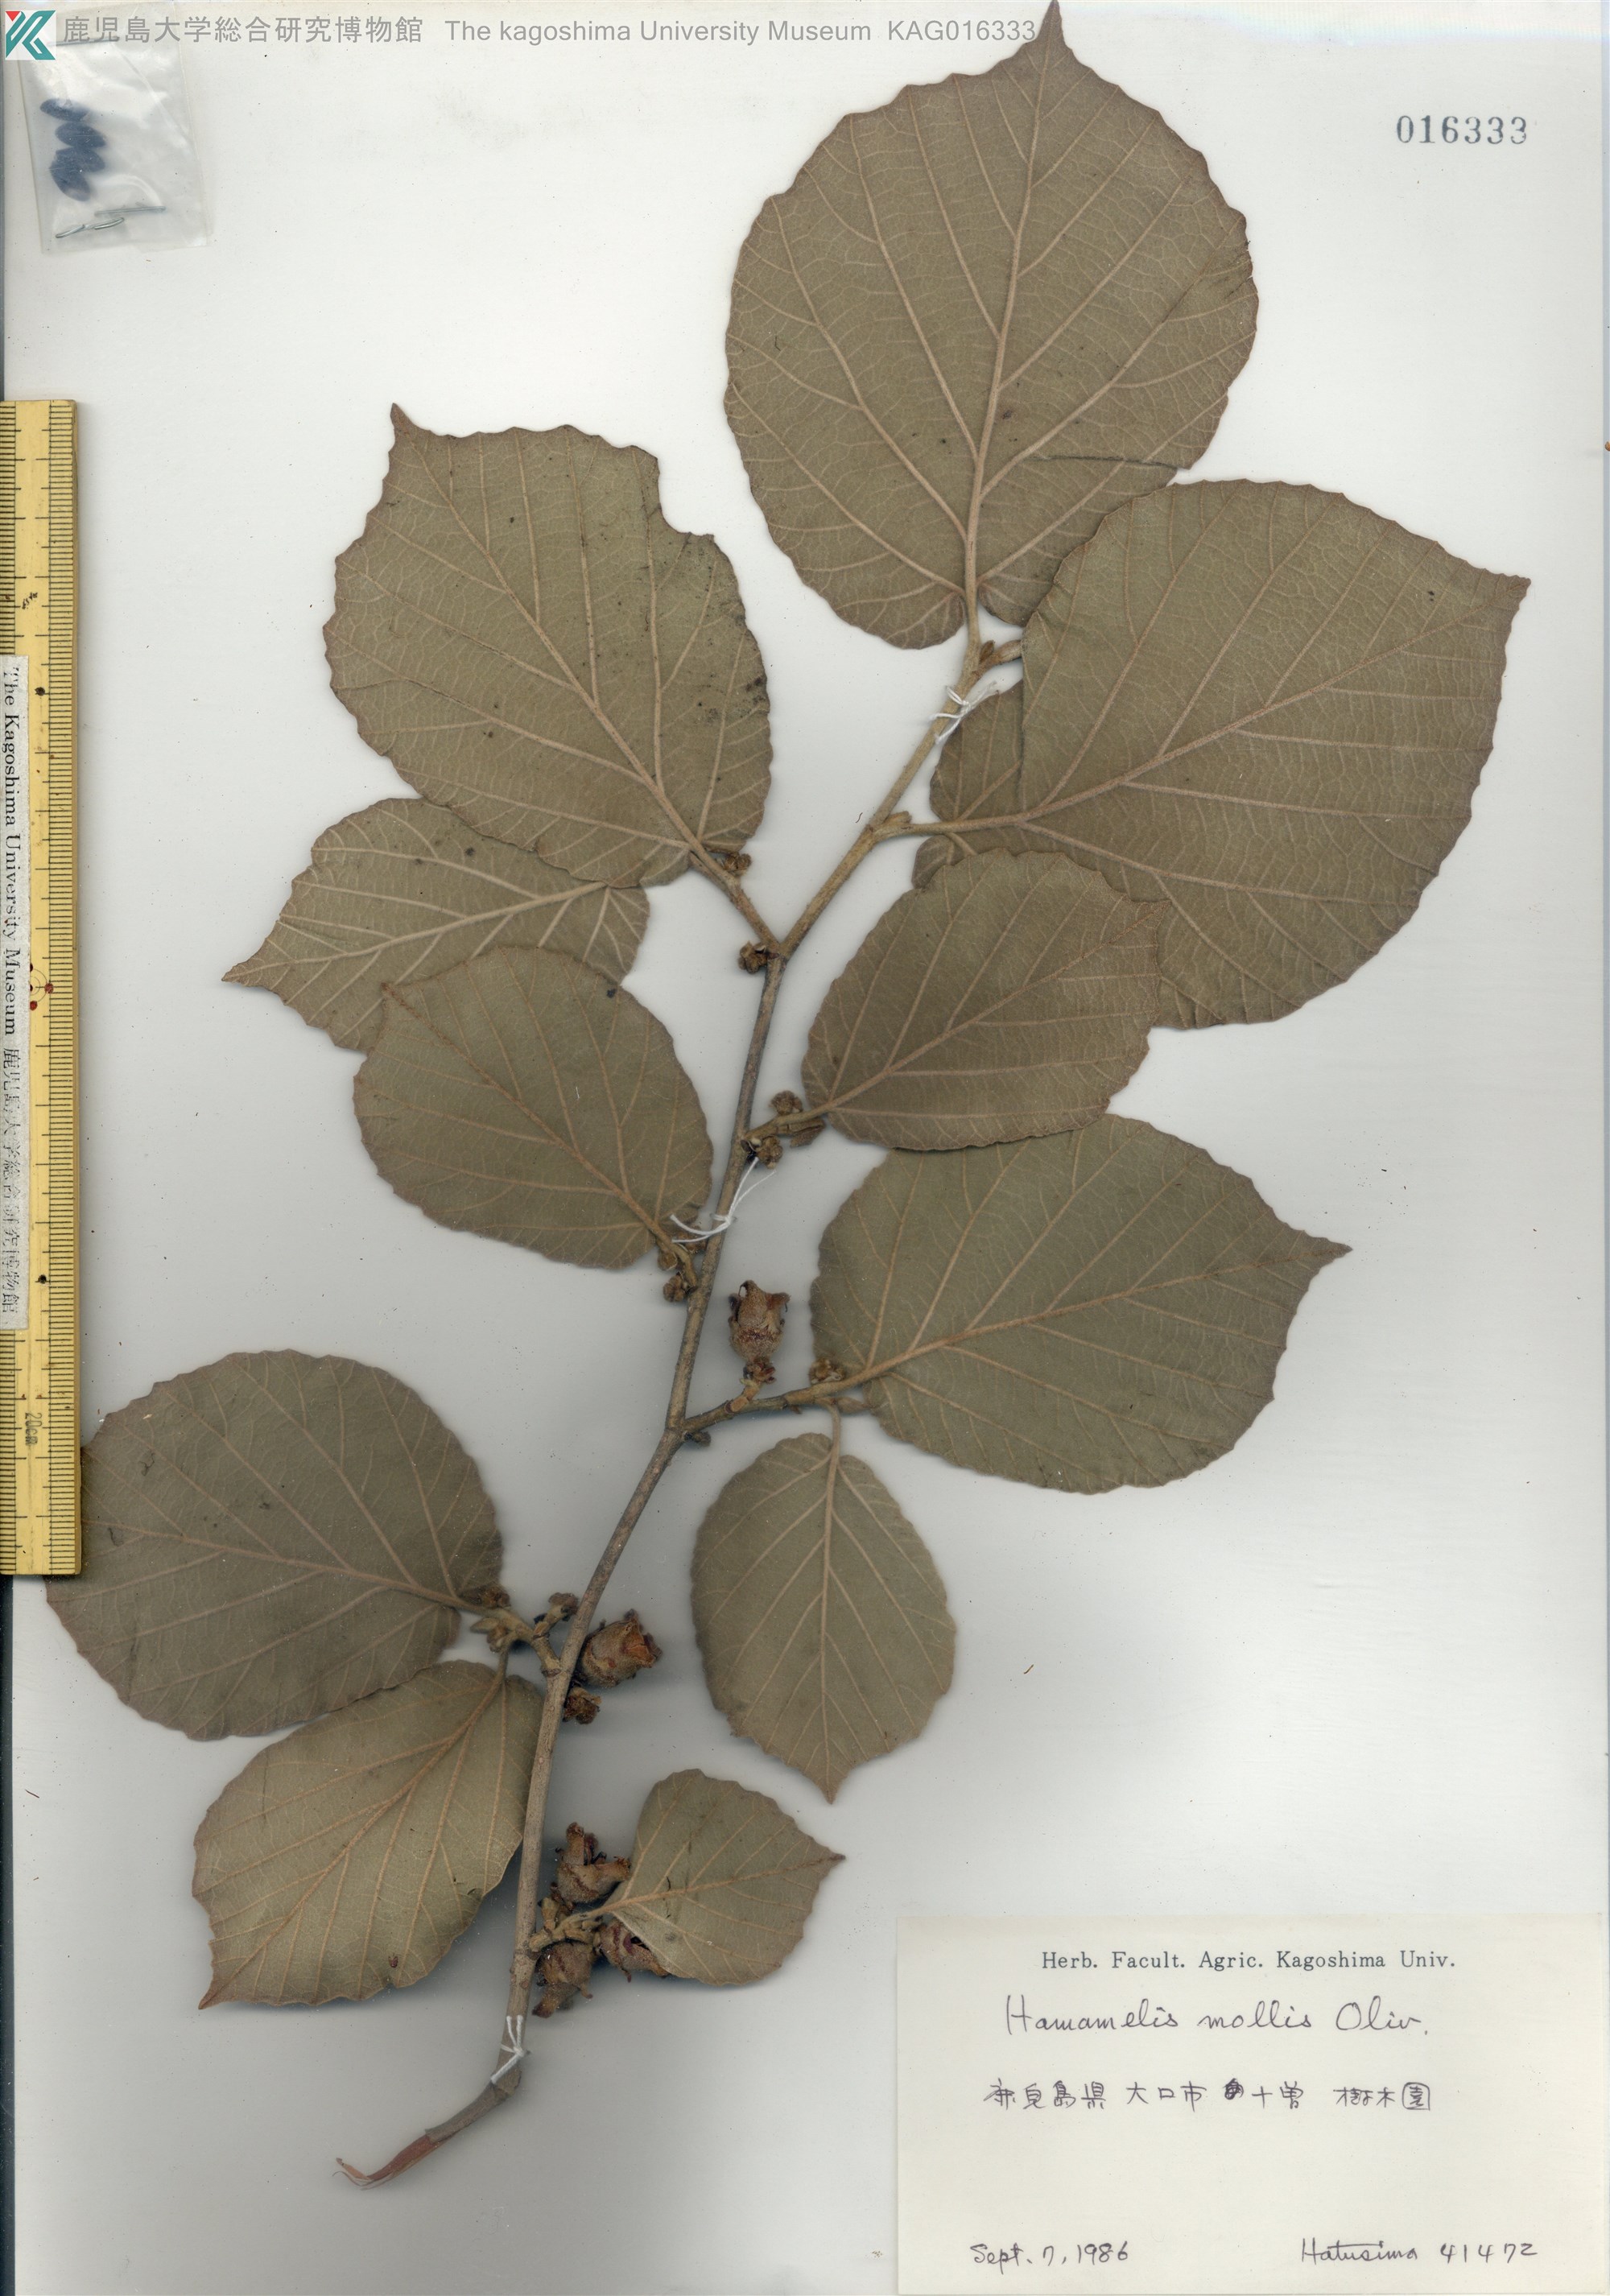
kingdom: Plantae
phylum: Tracheophyta
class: Magnoliopsida
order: Saxifragales
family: Hamamelidaceae
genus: Hamamelis
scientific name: Hamamelis mollis
